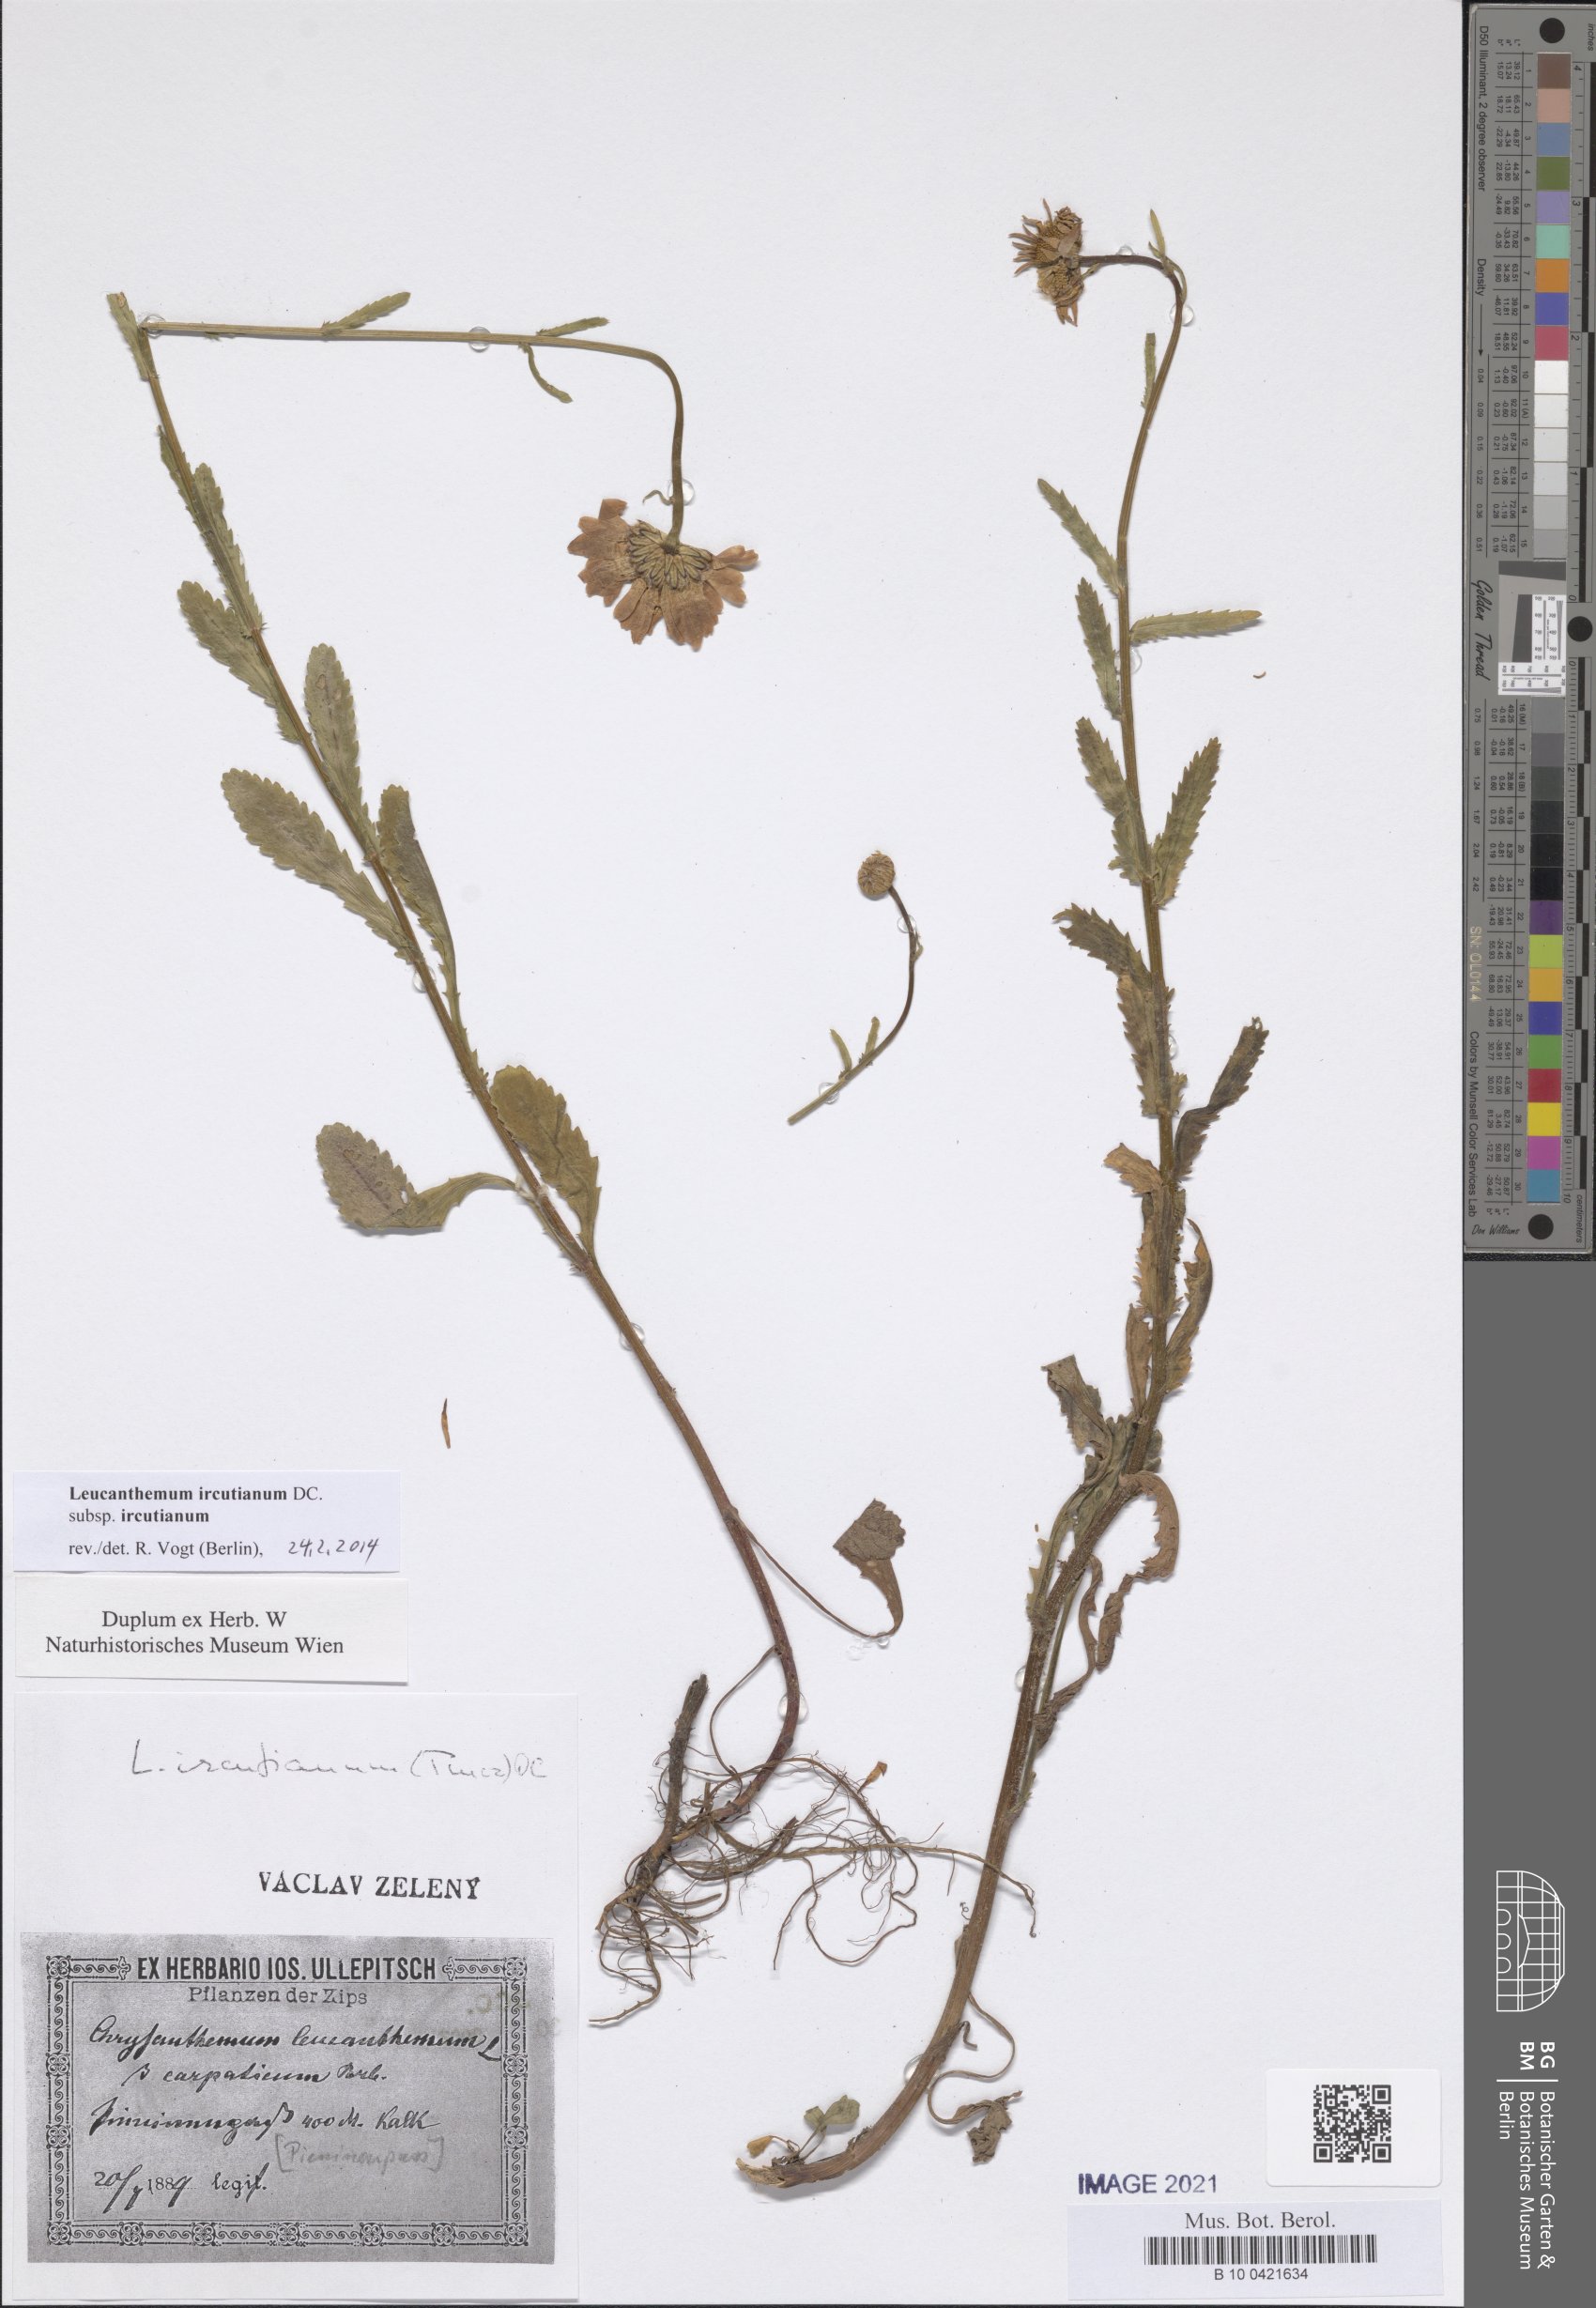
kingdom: Plantae
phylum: Tracheophyta
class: Magnoliopsida
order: Asterales
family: Asteraceae
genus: Leucanthemum
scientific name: Leucanthemum ircutianum
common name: Daisy
